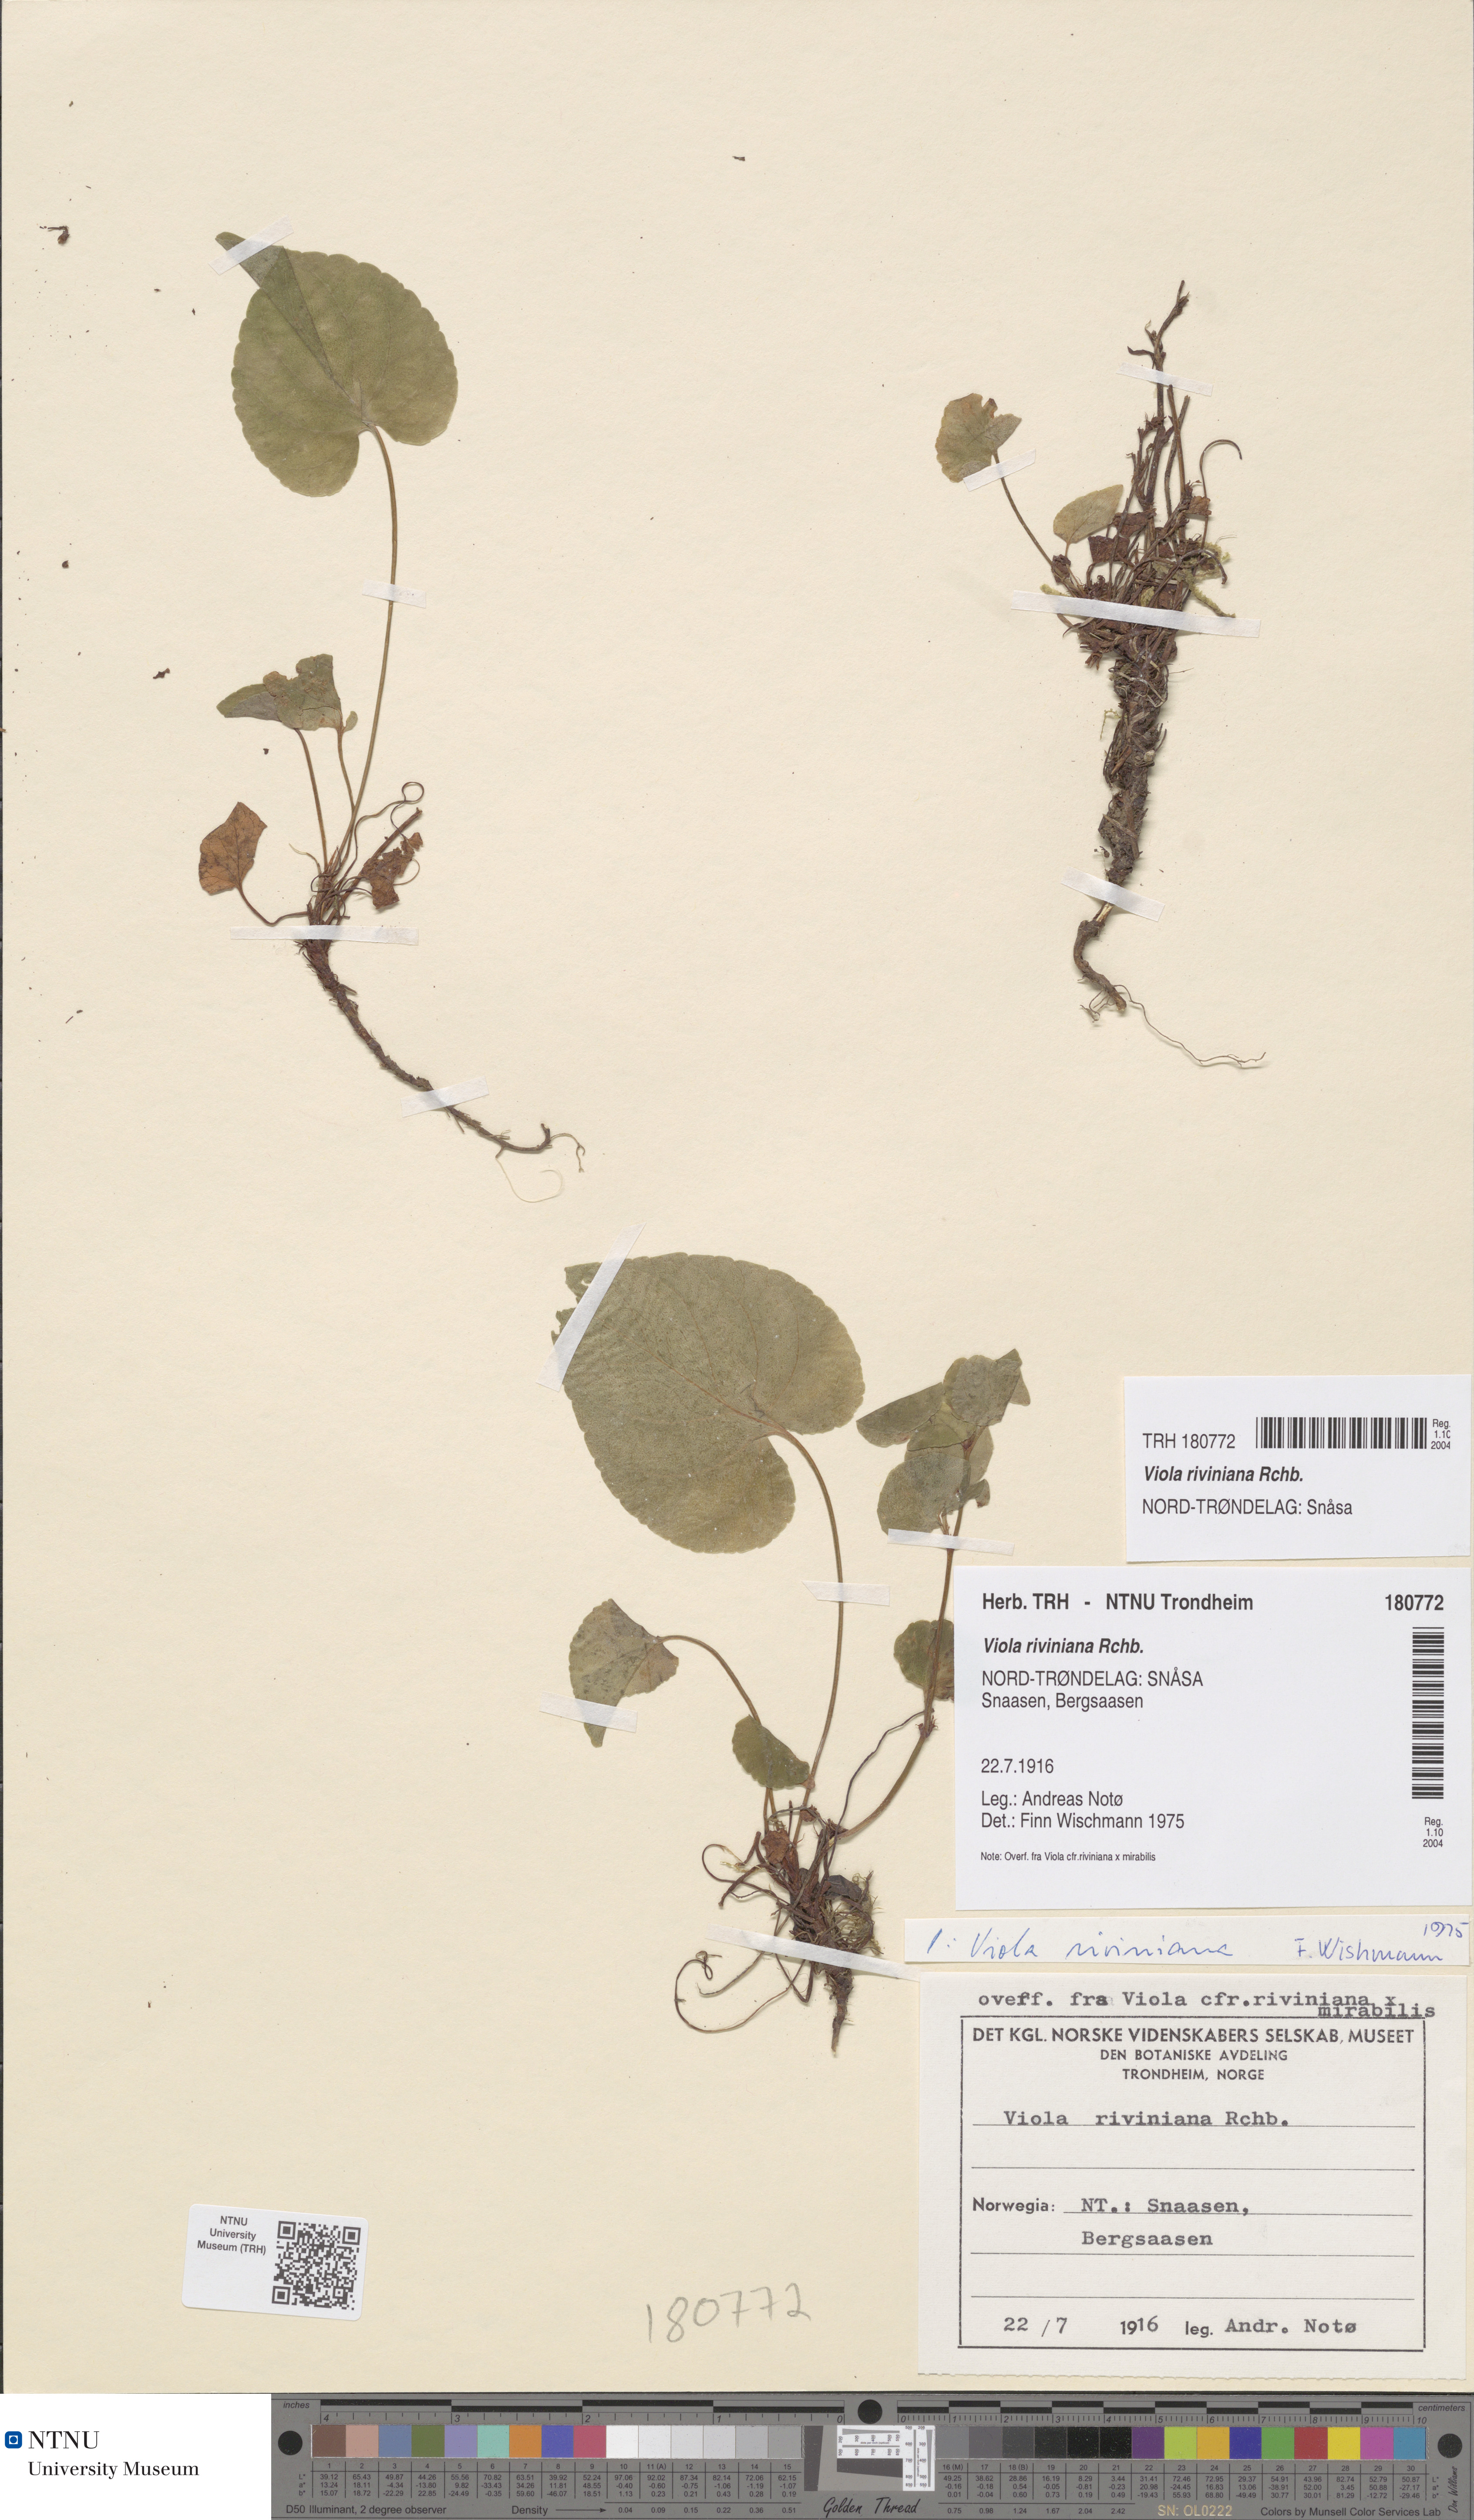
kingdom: Plantae
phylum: Tracheophyta
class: Magnoliopsida
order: Malpighiales
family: Violaceae
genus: Viola
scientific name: Viola riviniana
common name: Common dog-violet
